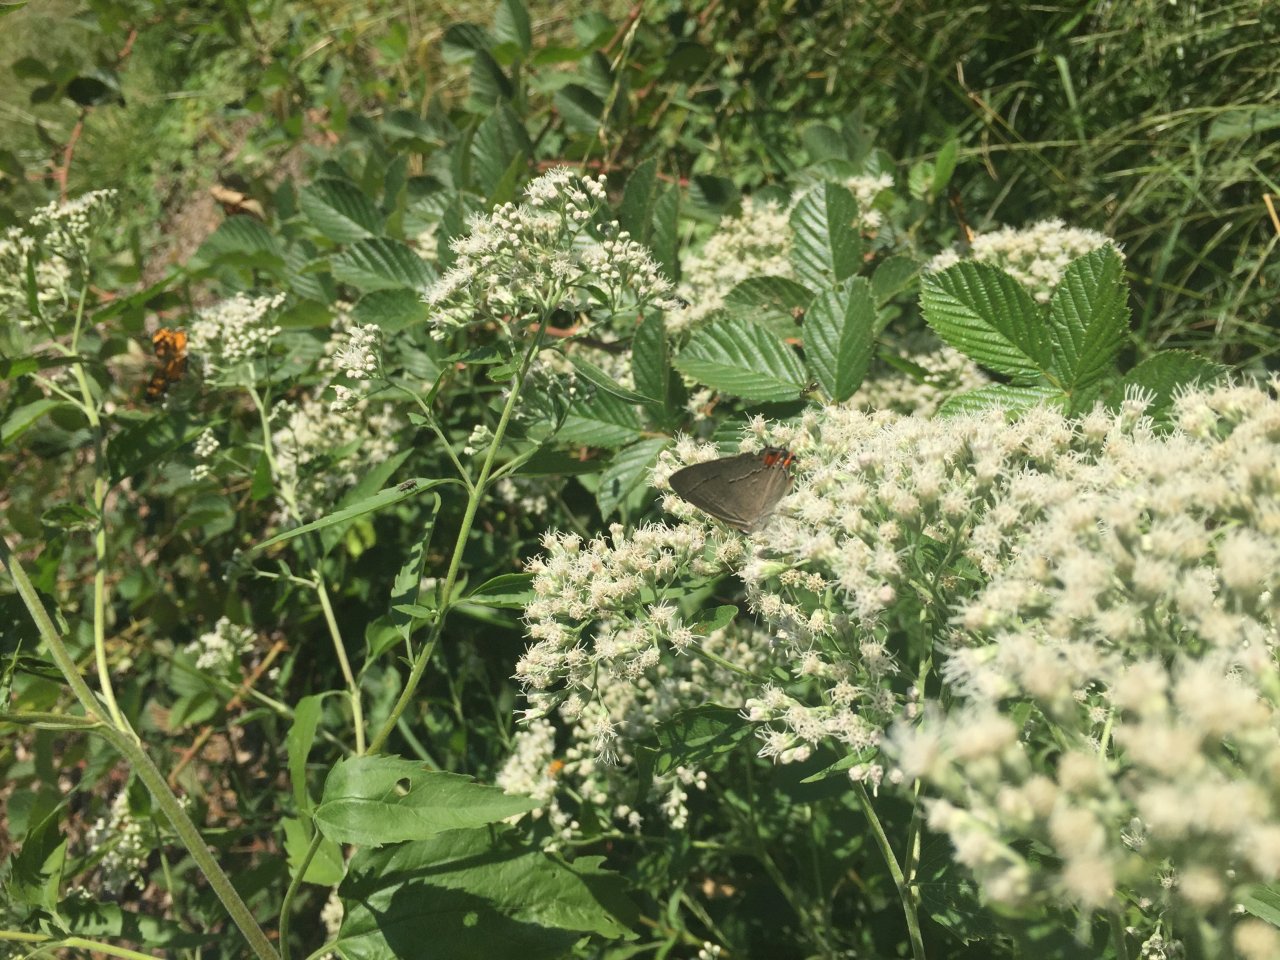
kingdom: Animalia
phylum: Arthropoda
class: Insecta
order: Lepidoptera
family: Lycaenidae
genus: Strymon
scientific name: Strymon melinus
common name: Gray Hairstreak
